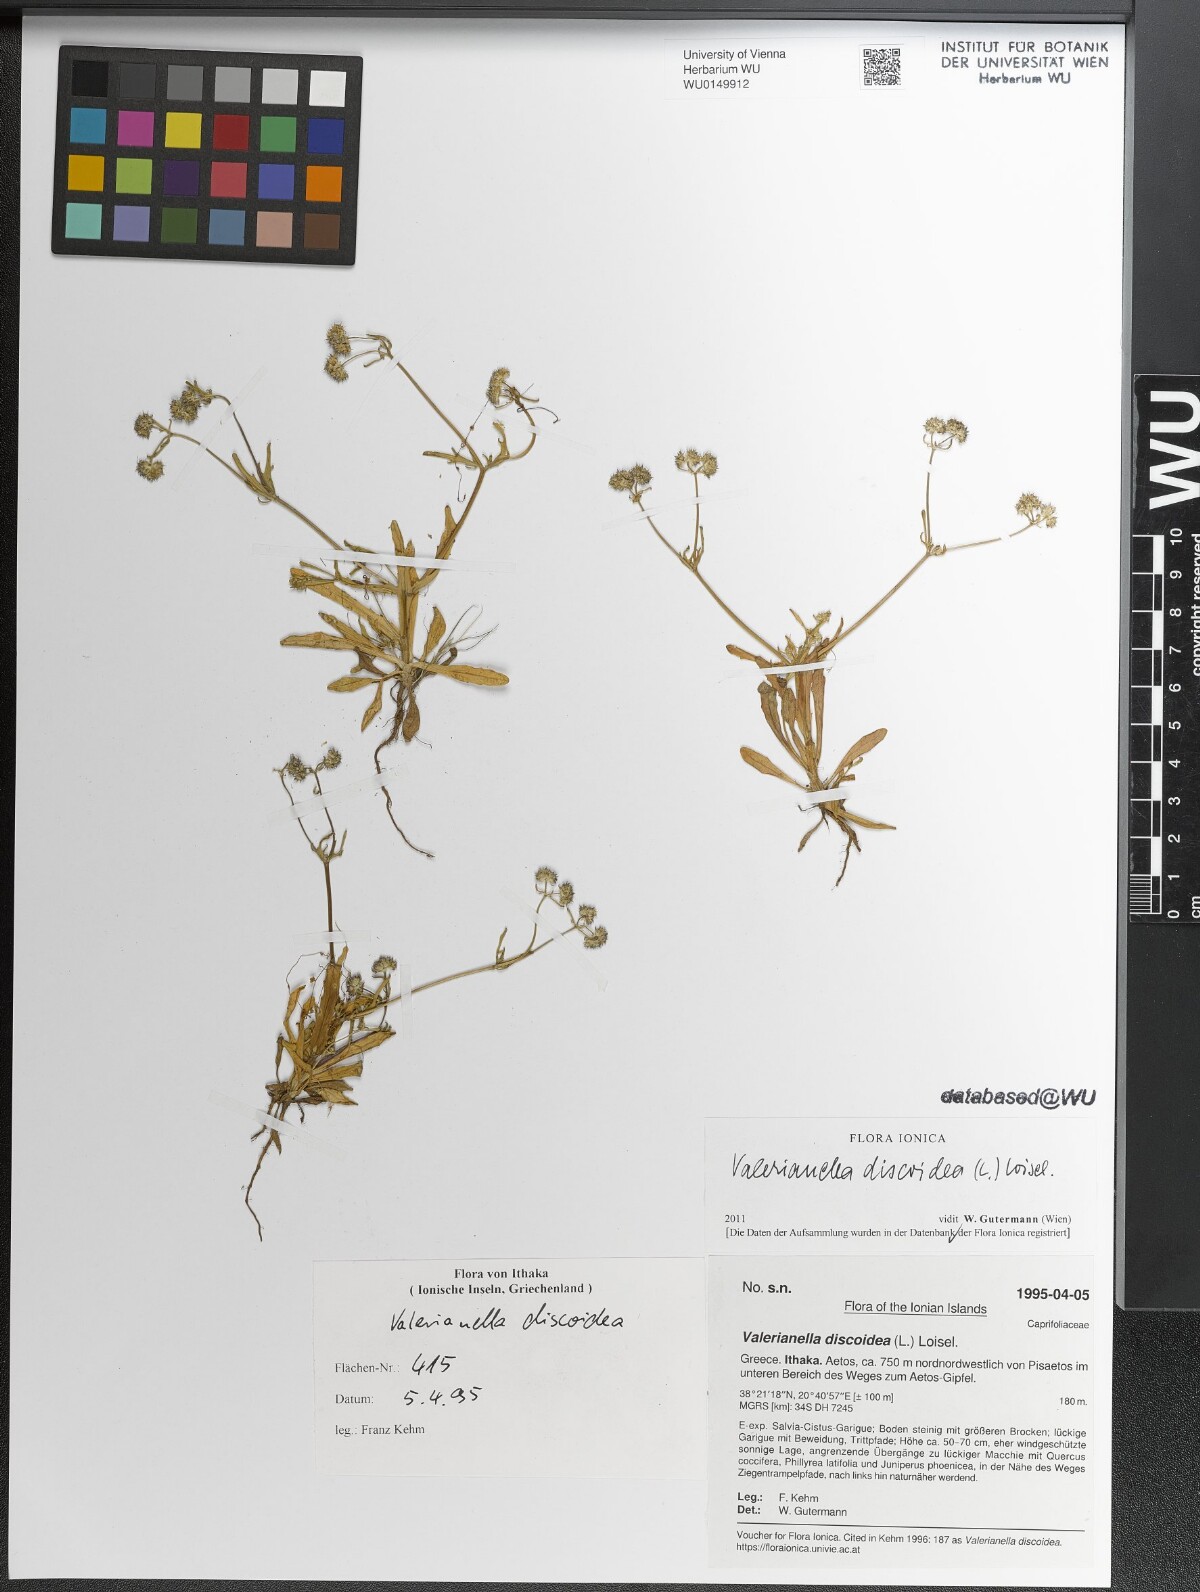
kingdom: Plantae
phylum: Tracheophyta
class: Magnoliopsida
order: Dipsacales
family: Caprifoliaceae
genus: Valerianella
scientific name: Valerianella discoidea
